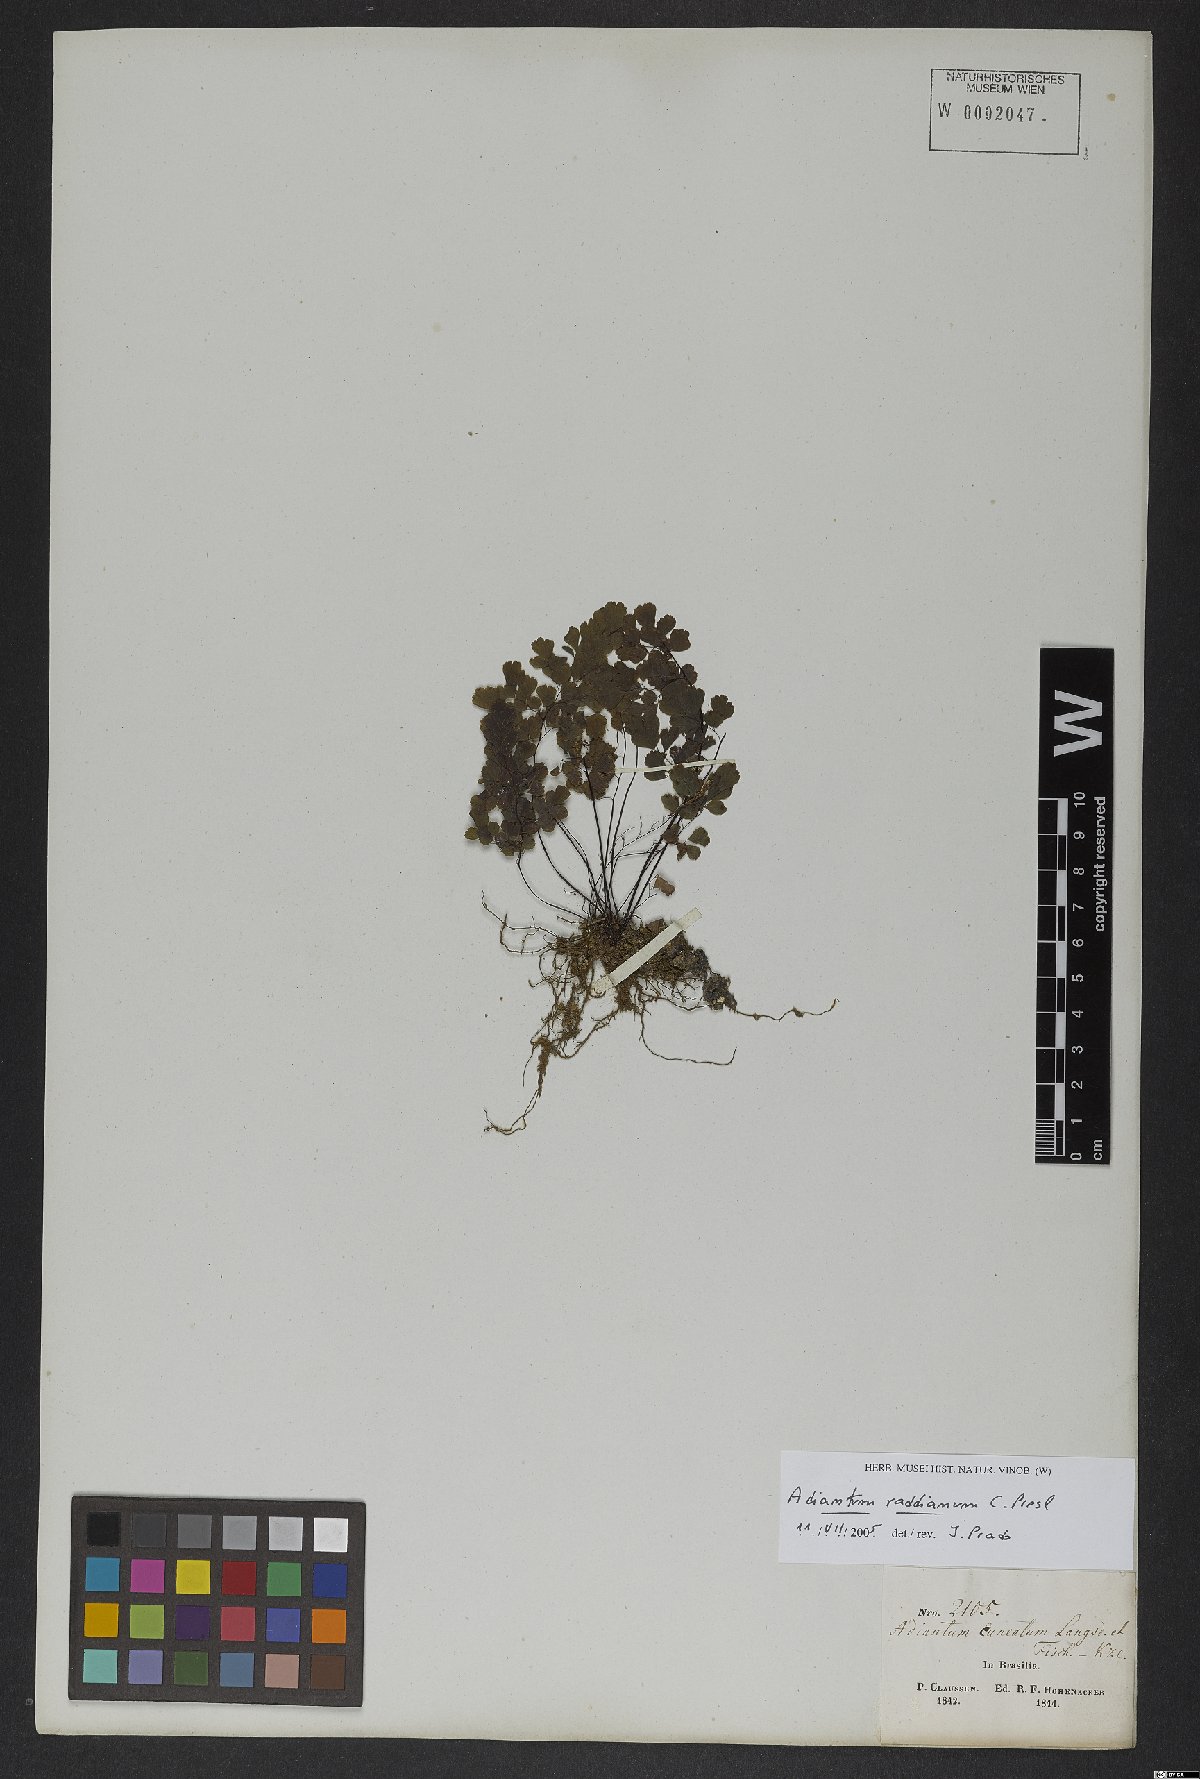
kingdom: Plantae
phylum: Tracheophyta
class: Polypodiopsida
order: Polypodiales
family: Pteridaceae
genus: Adiantum
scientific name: Adiantum raddianum
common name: Delta maidenhair fern
